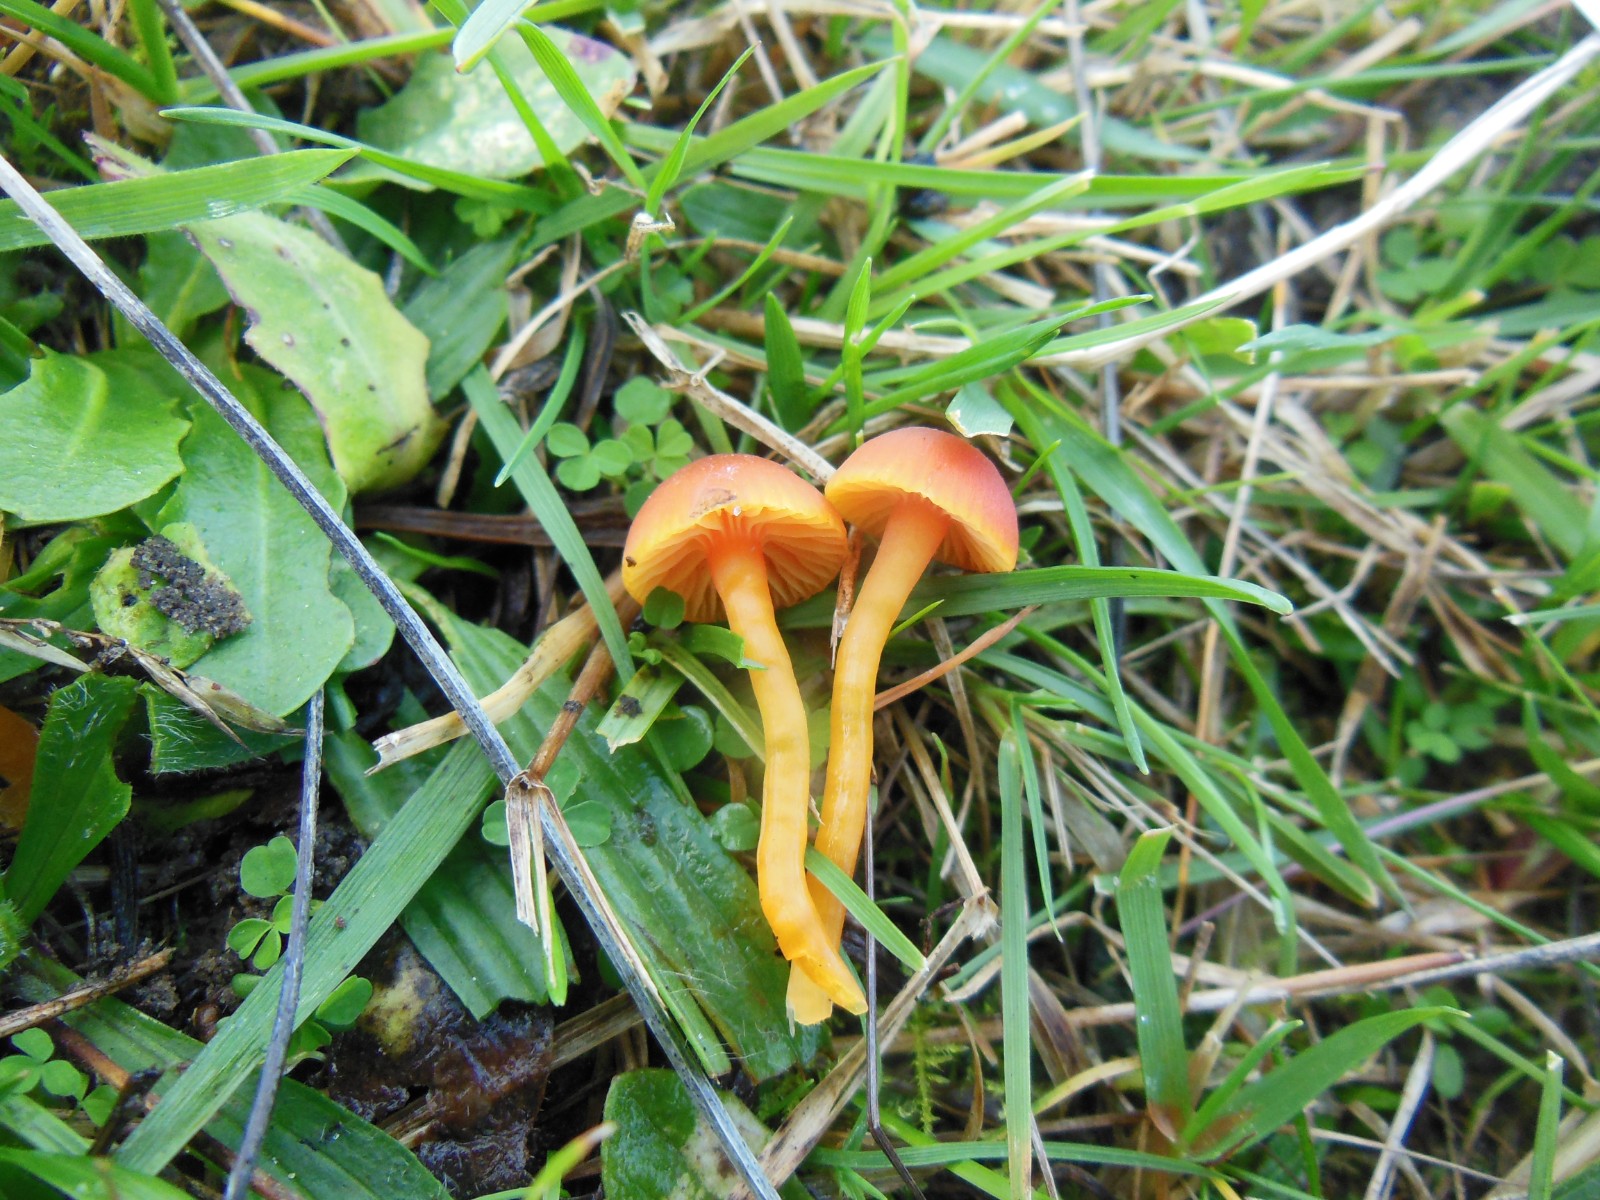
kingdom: Fungi
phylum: Basidiomycota
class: Agaricomycetes
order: Agaricales
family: Hygrophoraceae
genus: Hygrocybe
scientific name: Hygrocybe mucronella
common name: bitter vokshat
